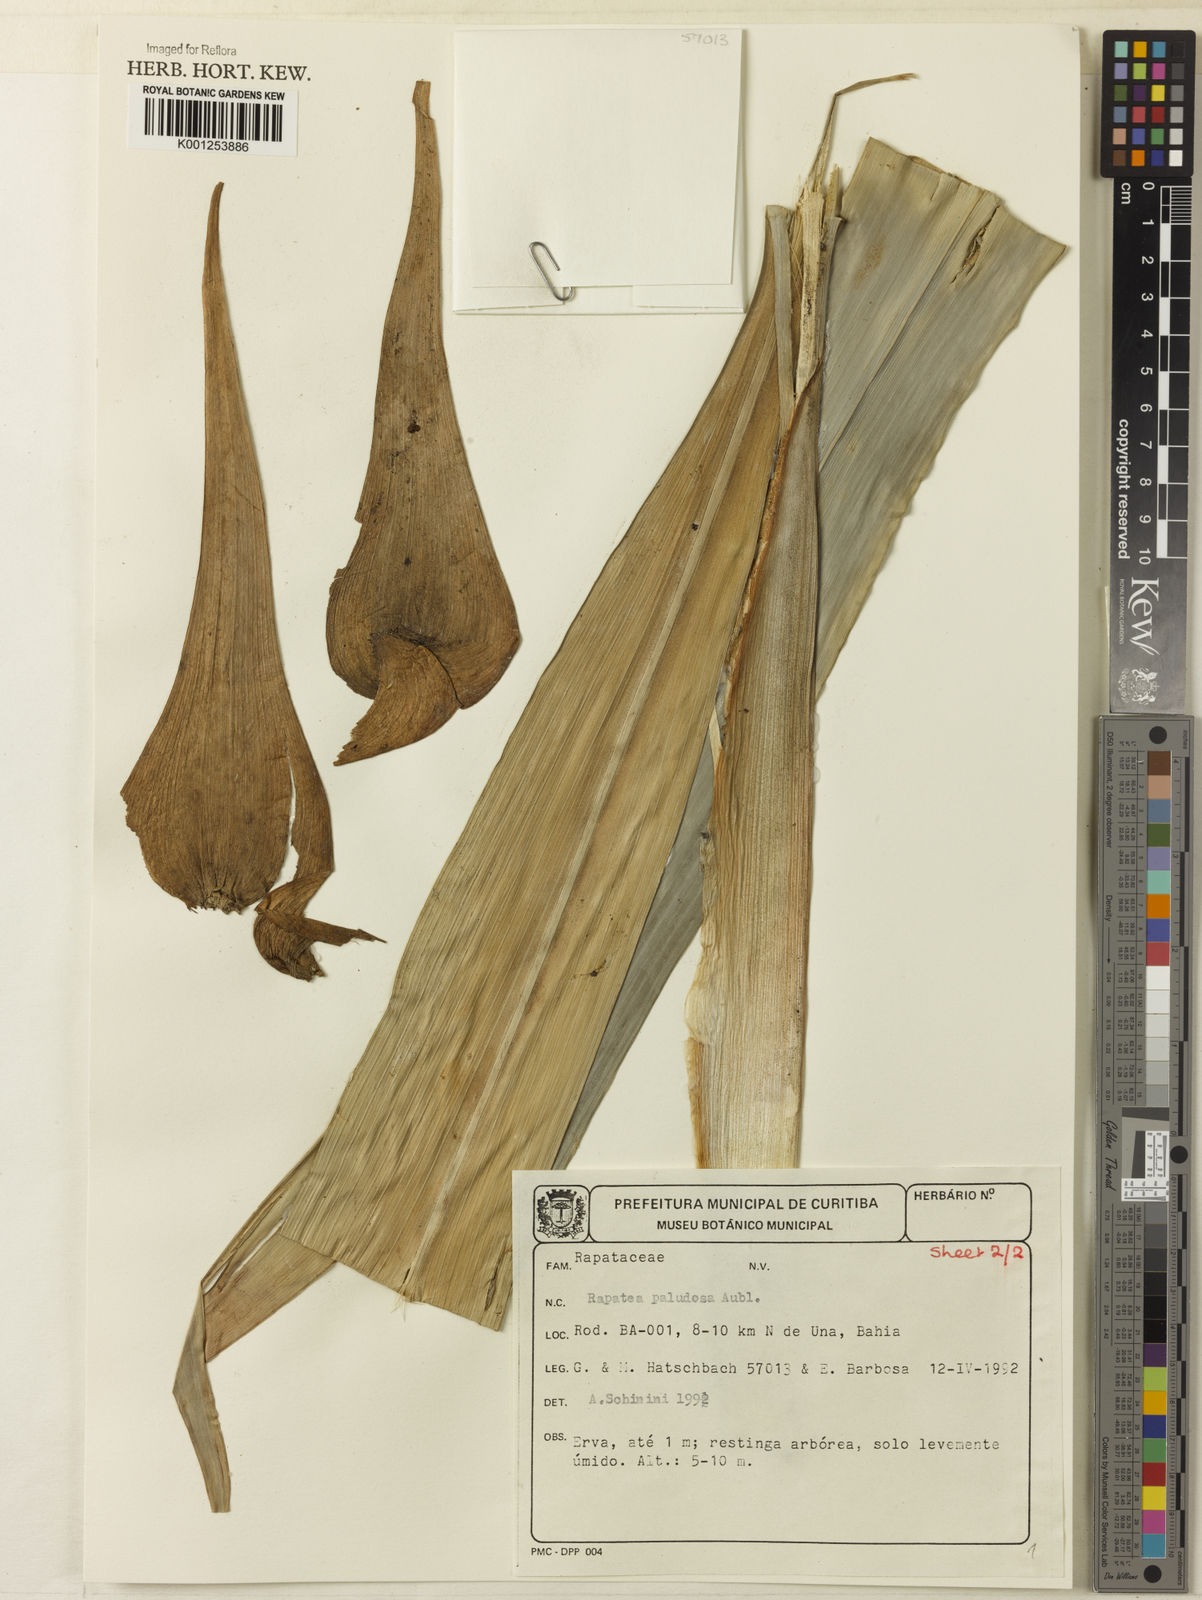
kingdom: Plantae
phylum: Tracheophyta
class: Liliopsida
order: Poales
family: Rapateaceae
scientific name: Rapateaceae
